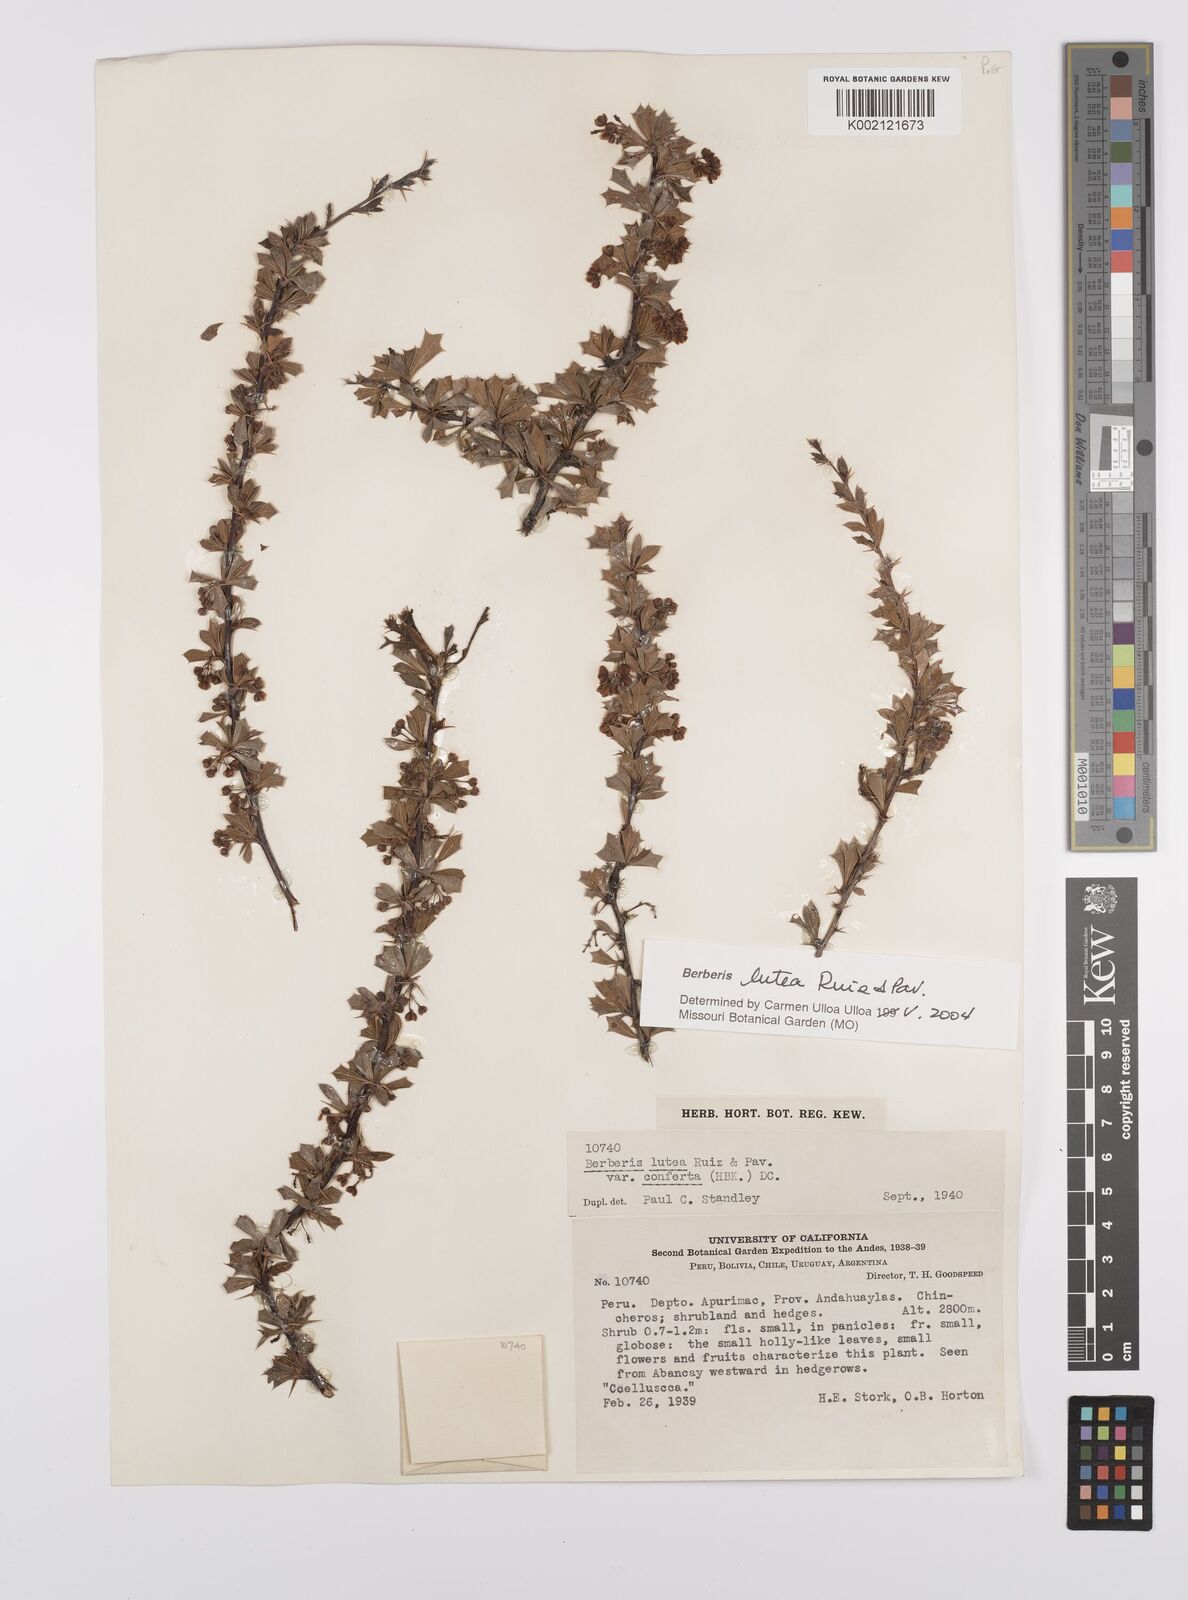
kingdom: Plantae
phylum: Tracheophyta
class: Magnoliopsida
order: Ranunculales
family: Berberidaceae
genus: Berberis
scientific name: Berberis lutea
